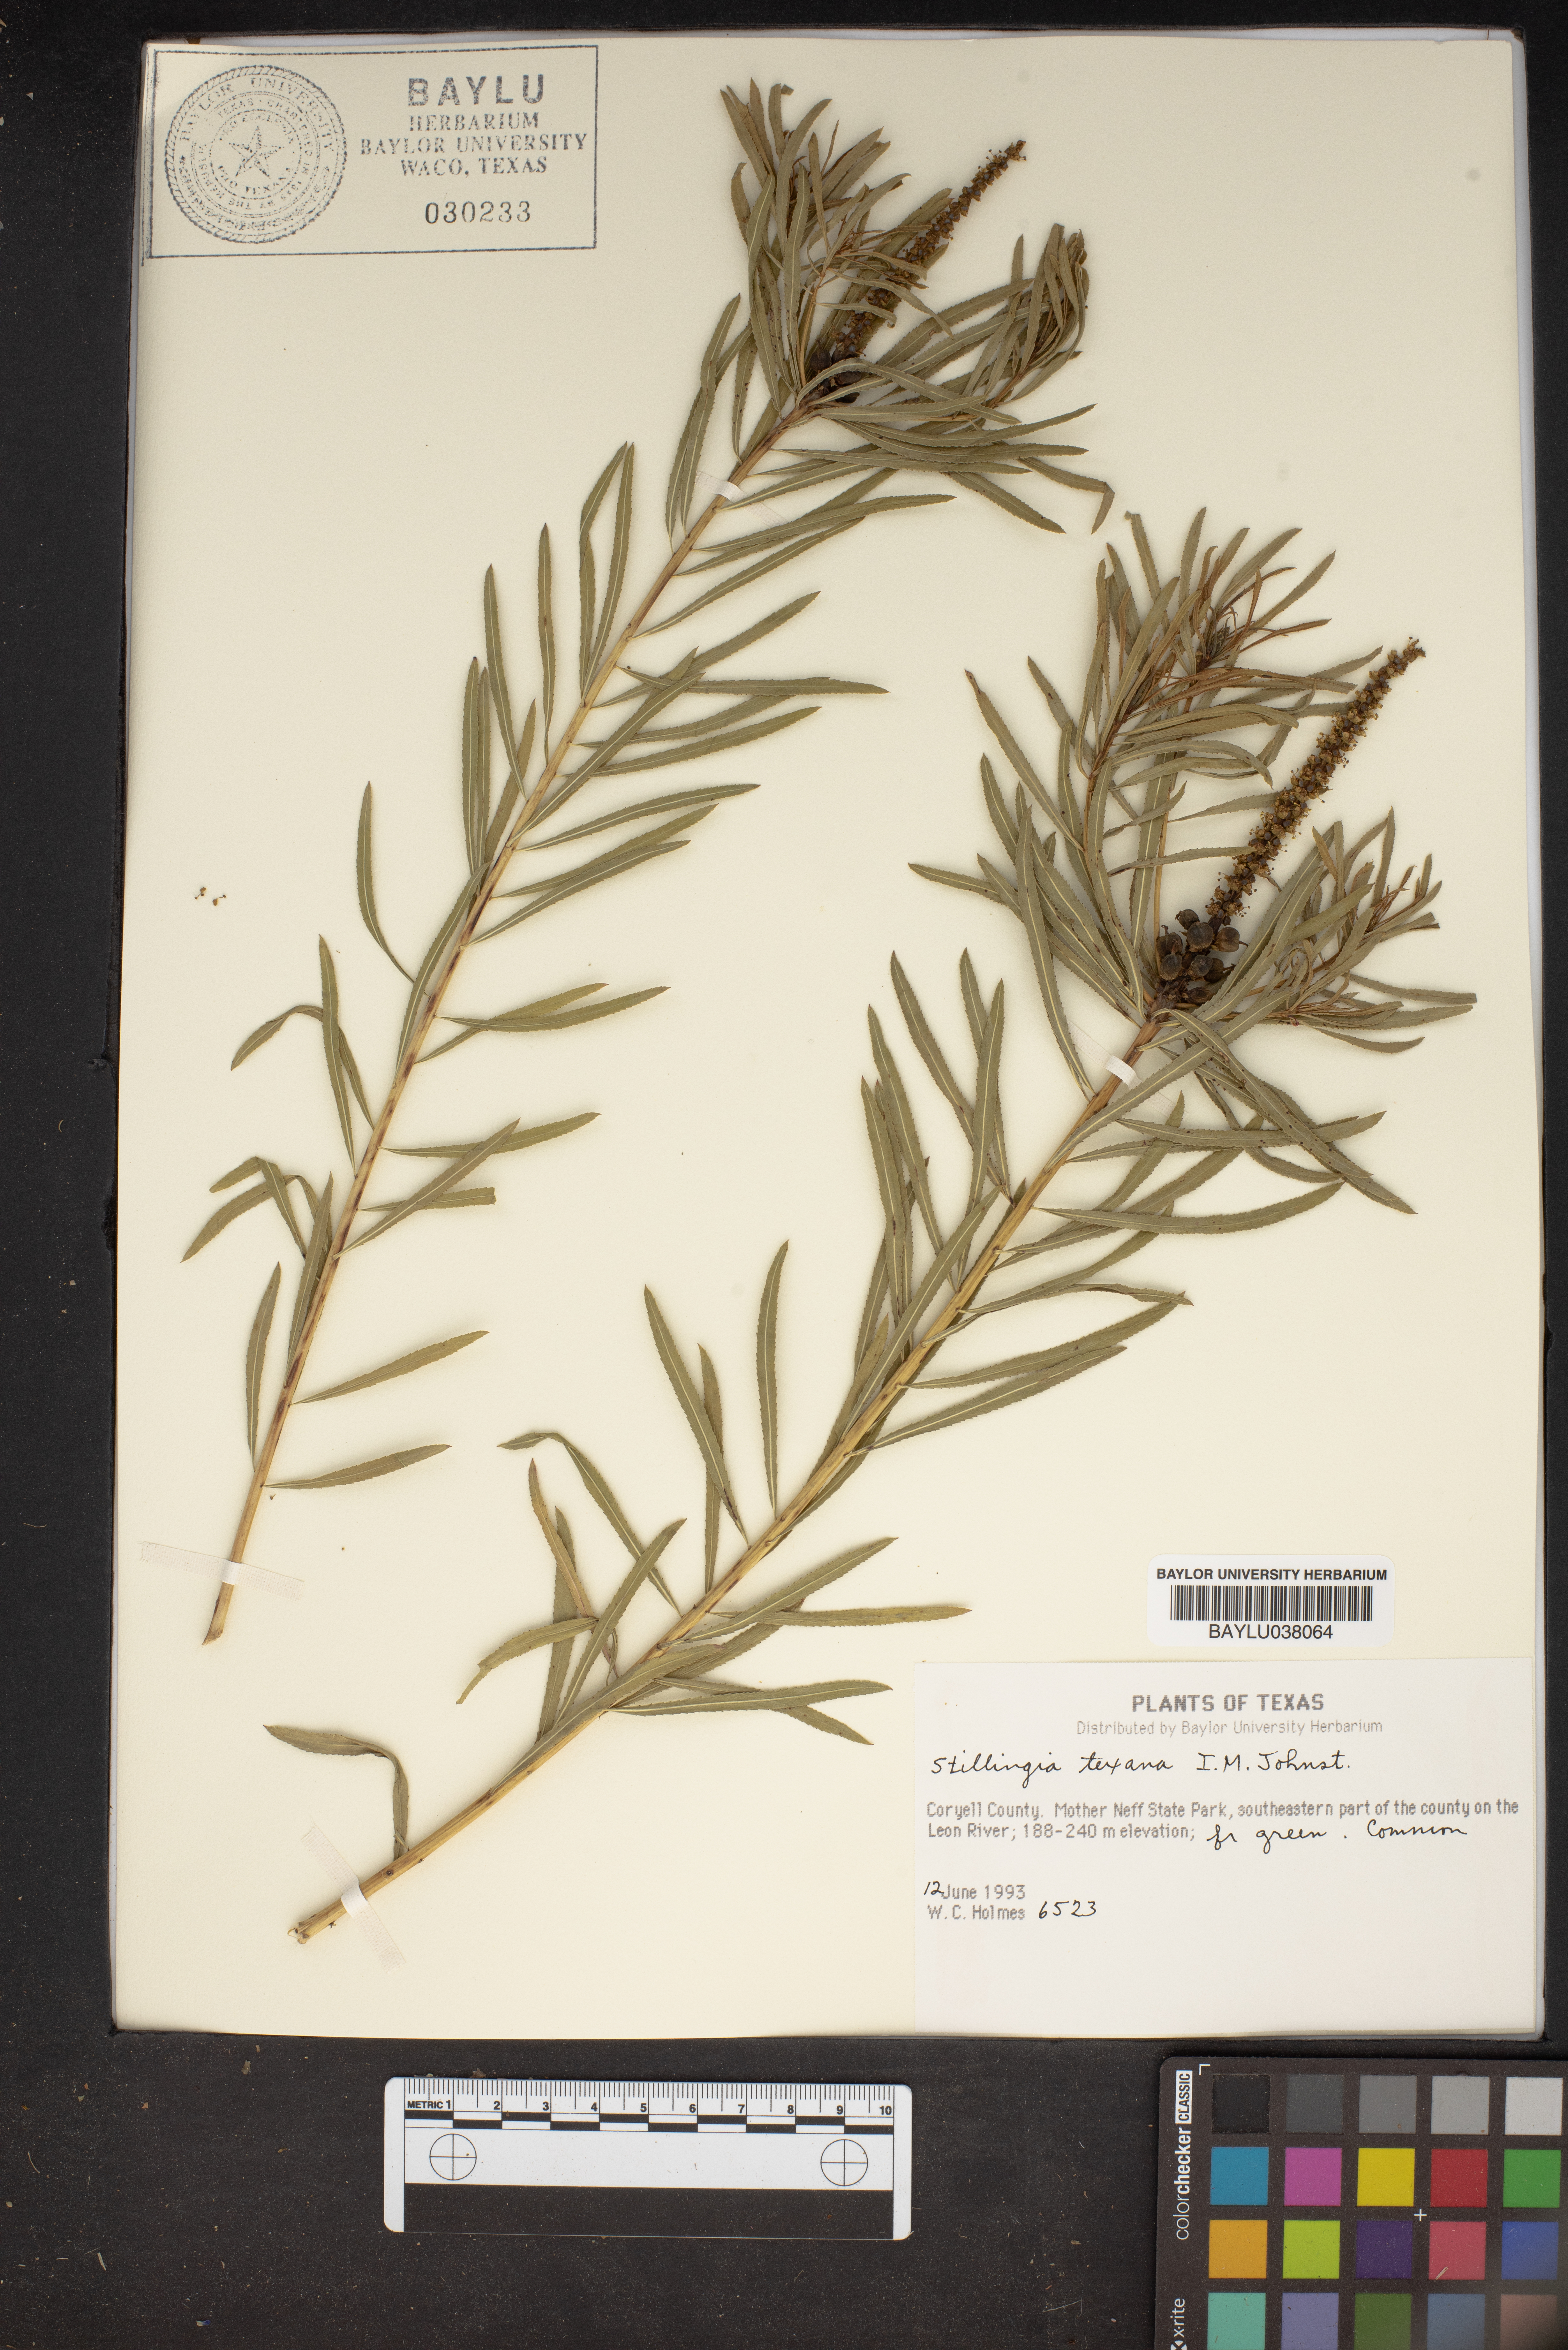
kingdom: Plantae
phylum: Tracheophyta
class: Magnoliopsida
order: Malpighiales
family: Euphorbiaceae
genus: Stillingia
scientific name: Stillingia texana
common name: Texas stillingia
